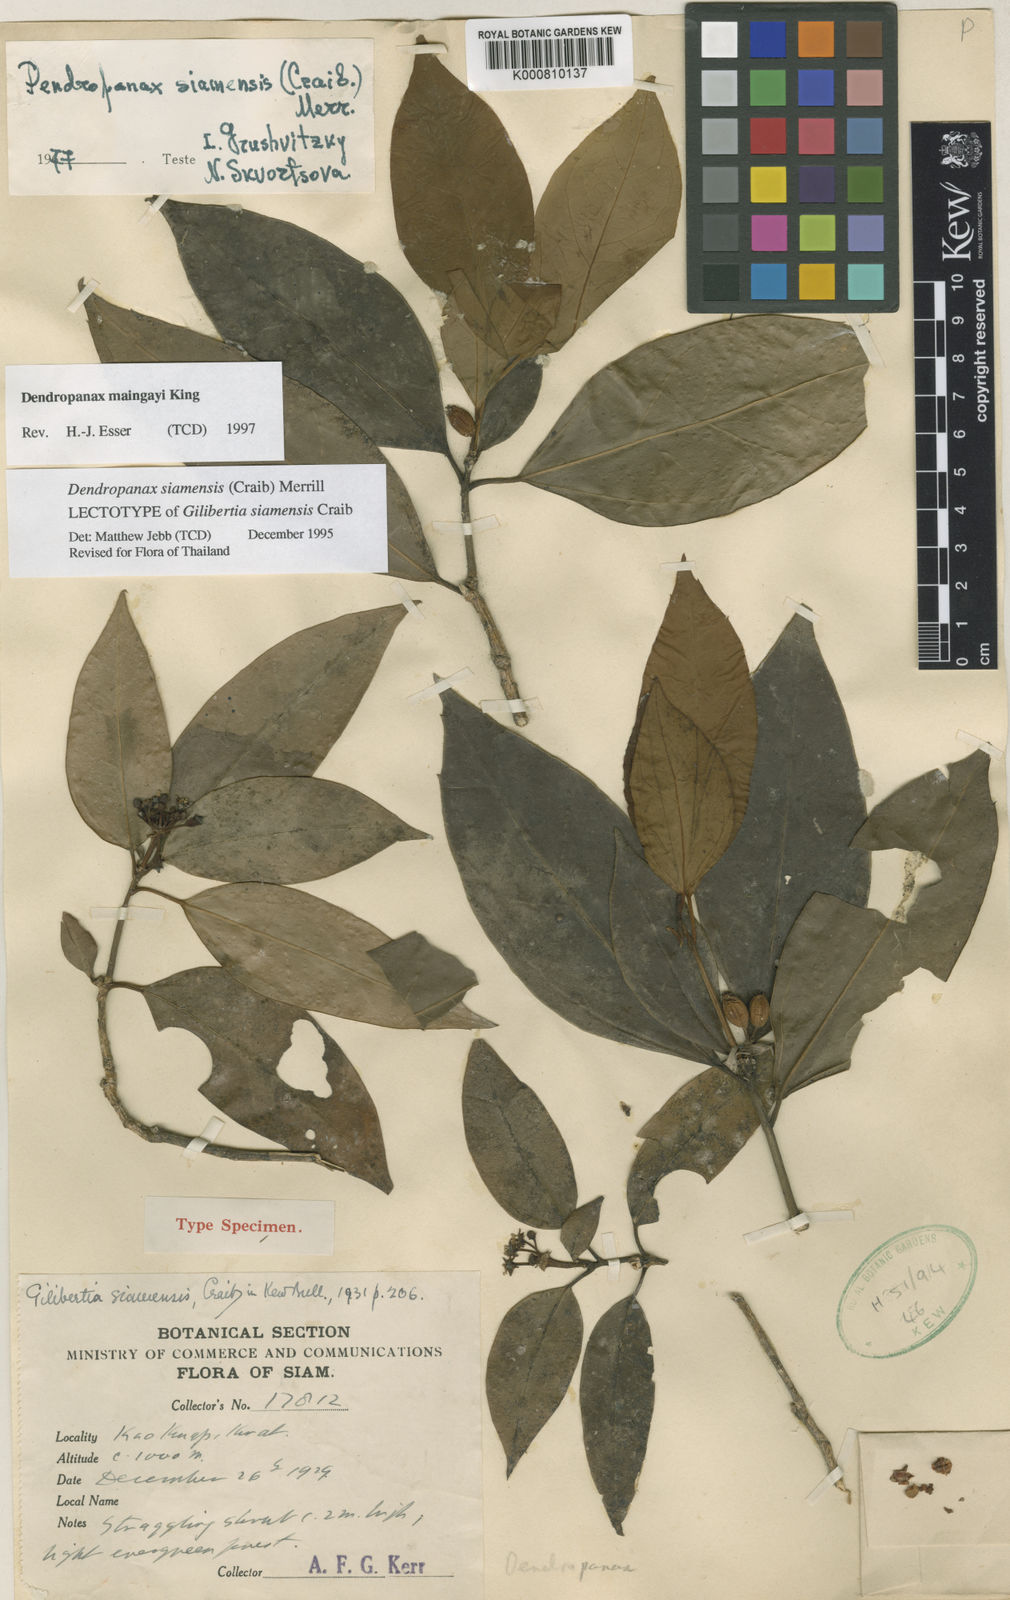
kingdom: Plantae
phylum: Tracheophyta
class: Magnoliopsida
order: Apiales
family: Araliaceae
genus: Dendropanax
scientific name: Dendropanax maingayi
